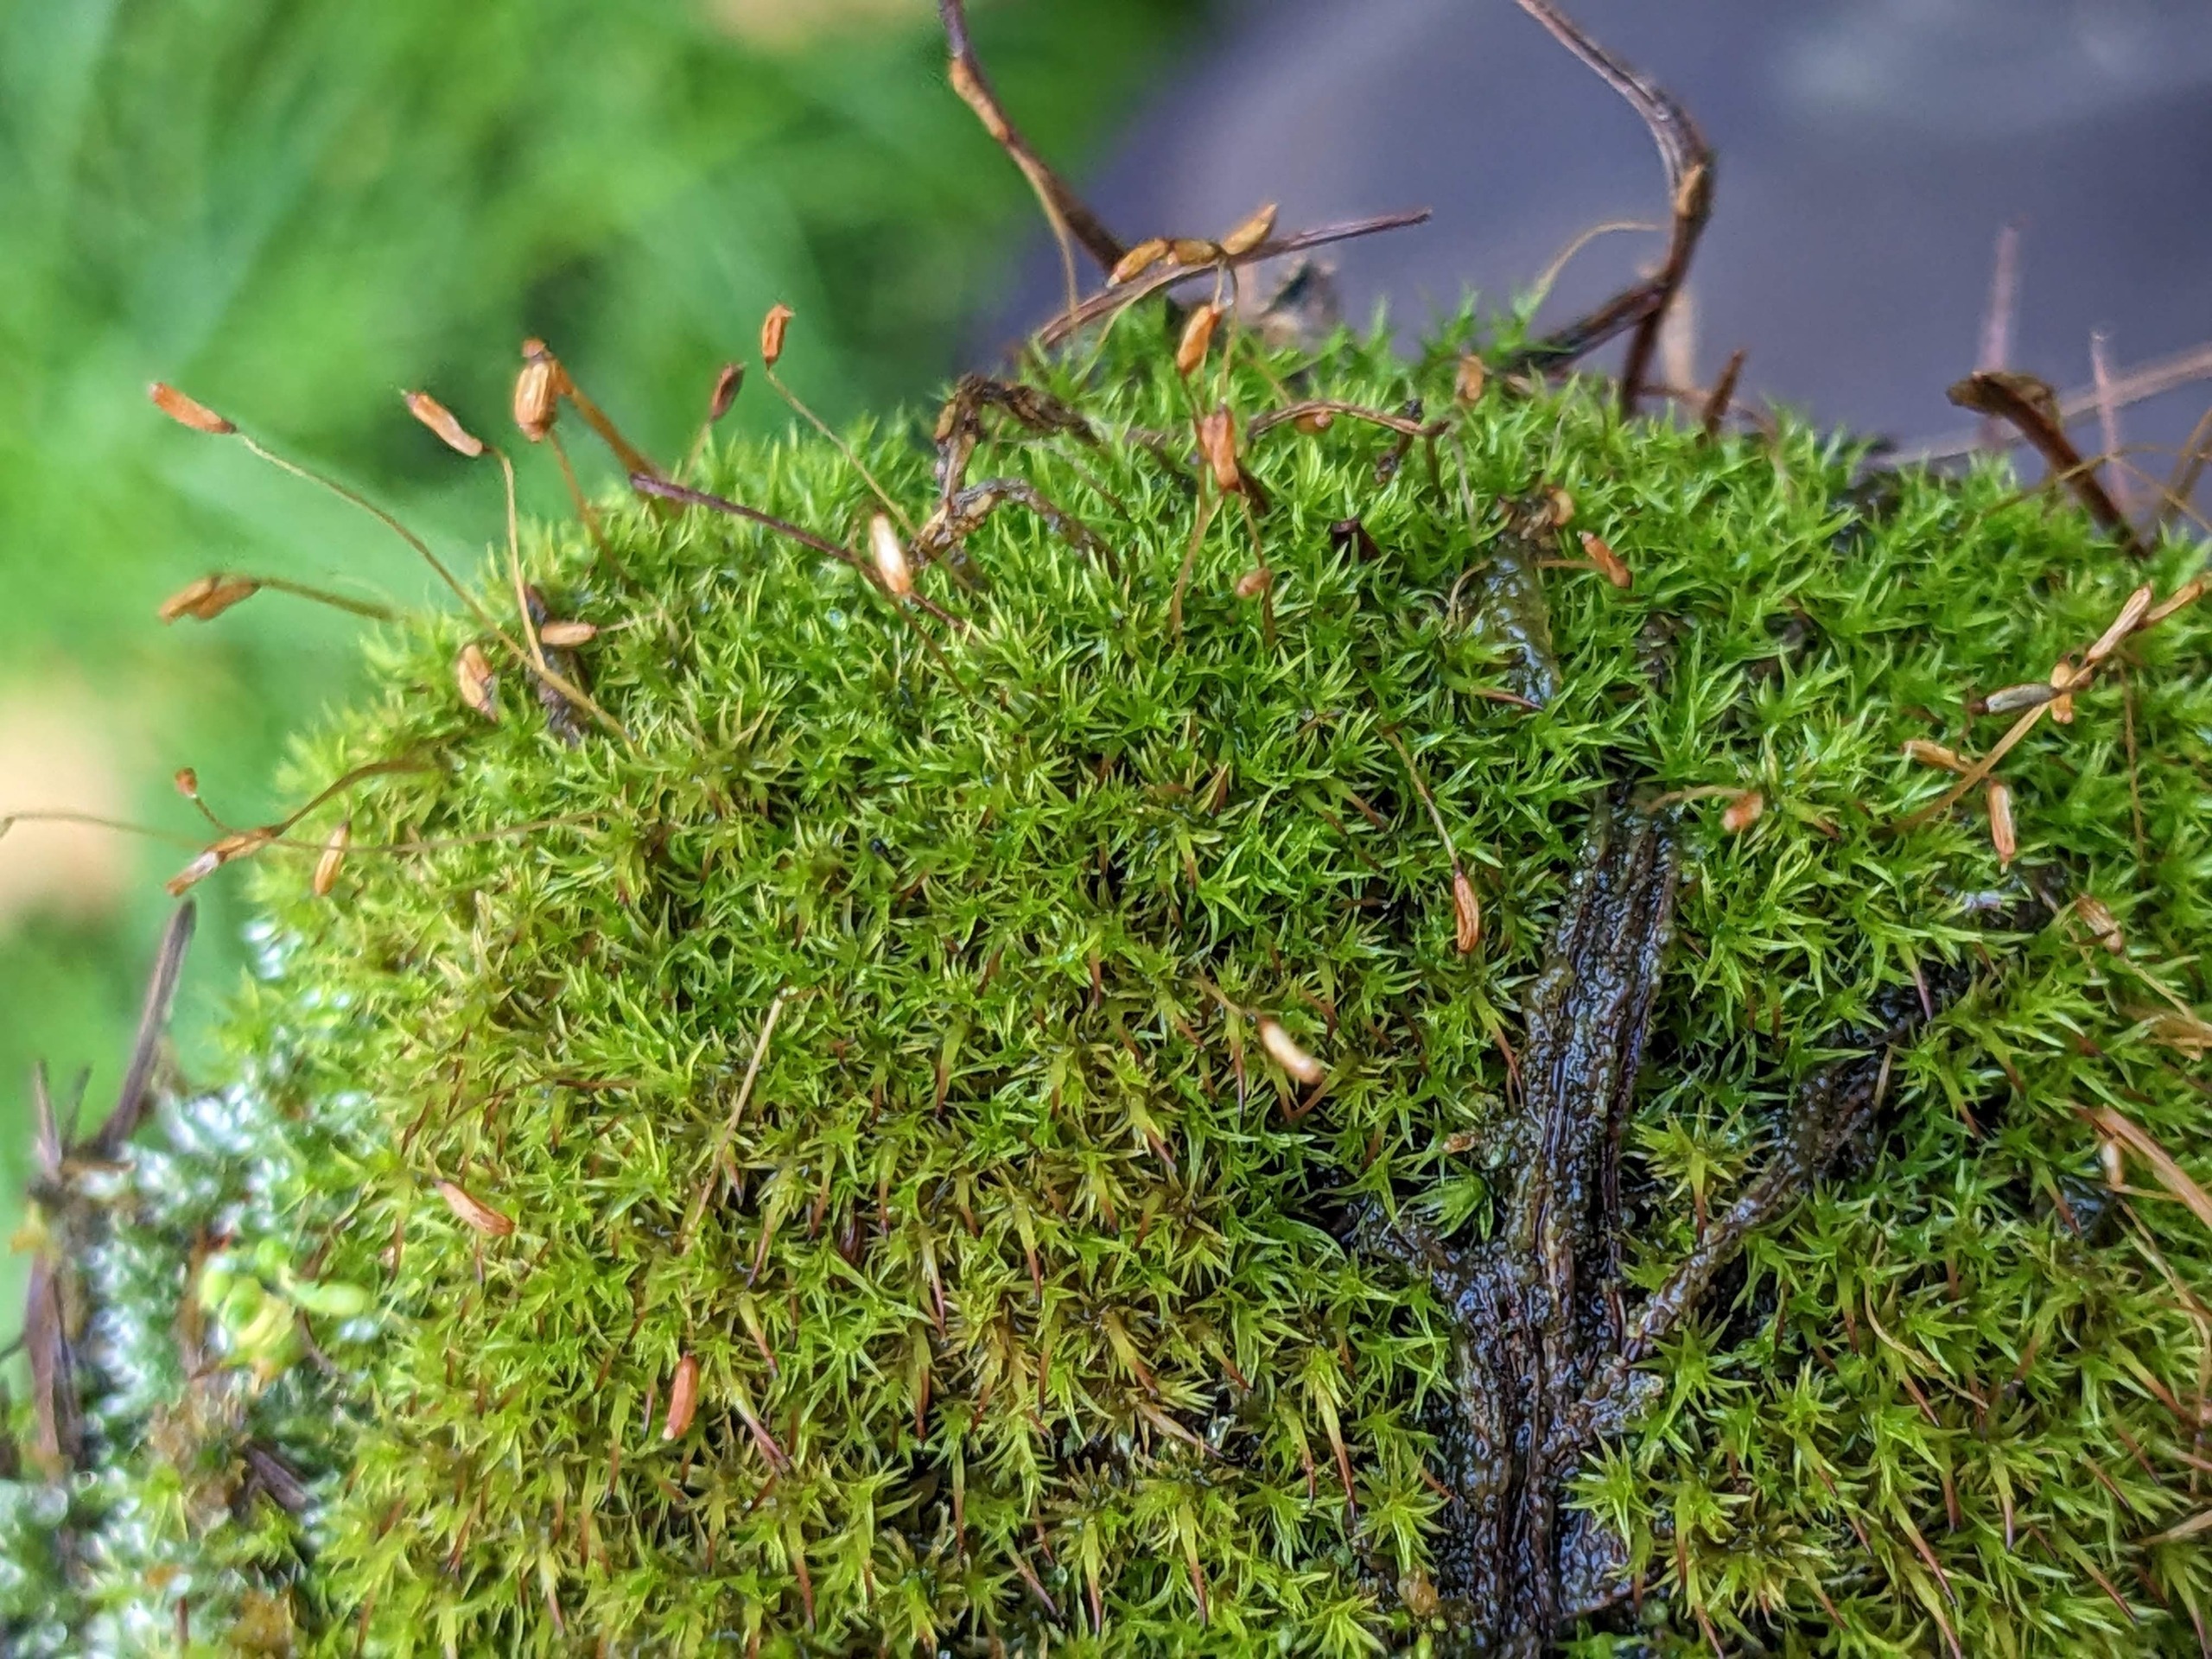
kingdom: Plantae
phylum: Bryophyta
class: Bryopsida
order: Dicranales
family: Ditrichaceae
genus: Ceratodon
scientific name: Ceratodon purpureus
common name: Rød horntand
